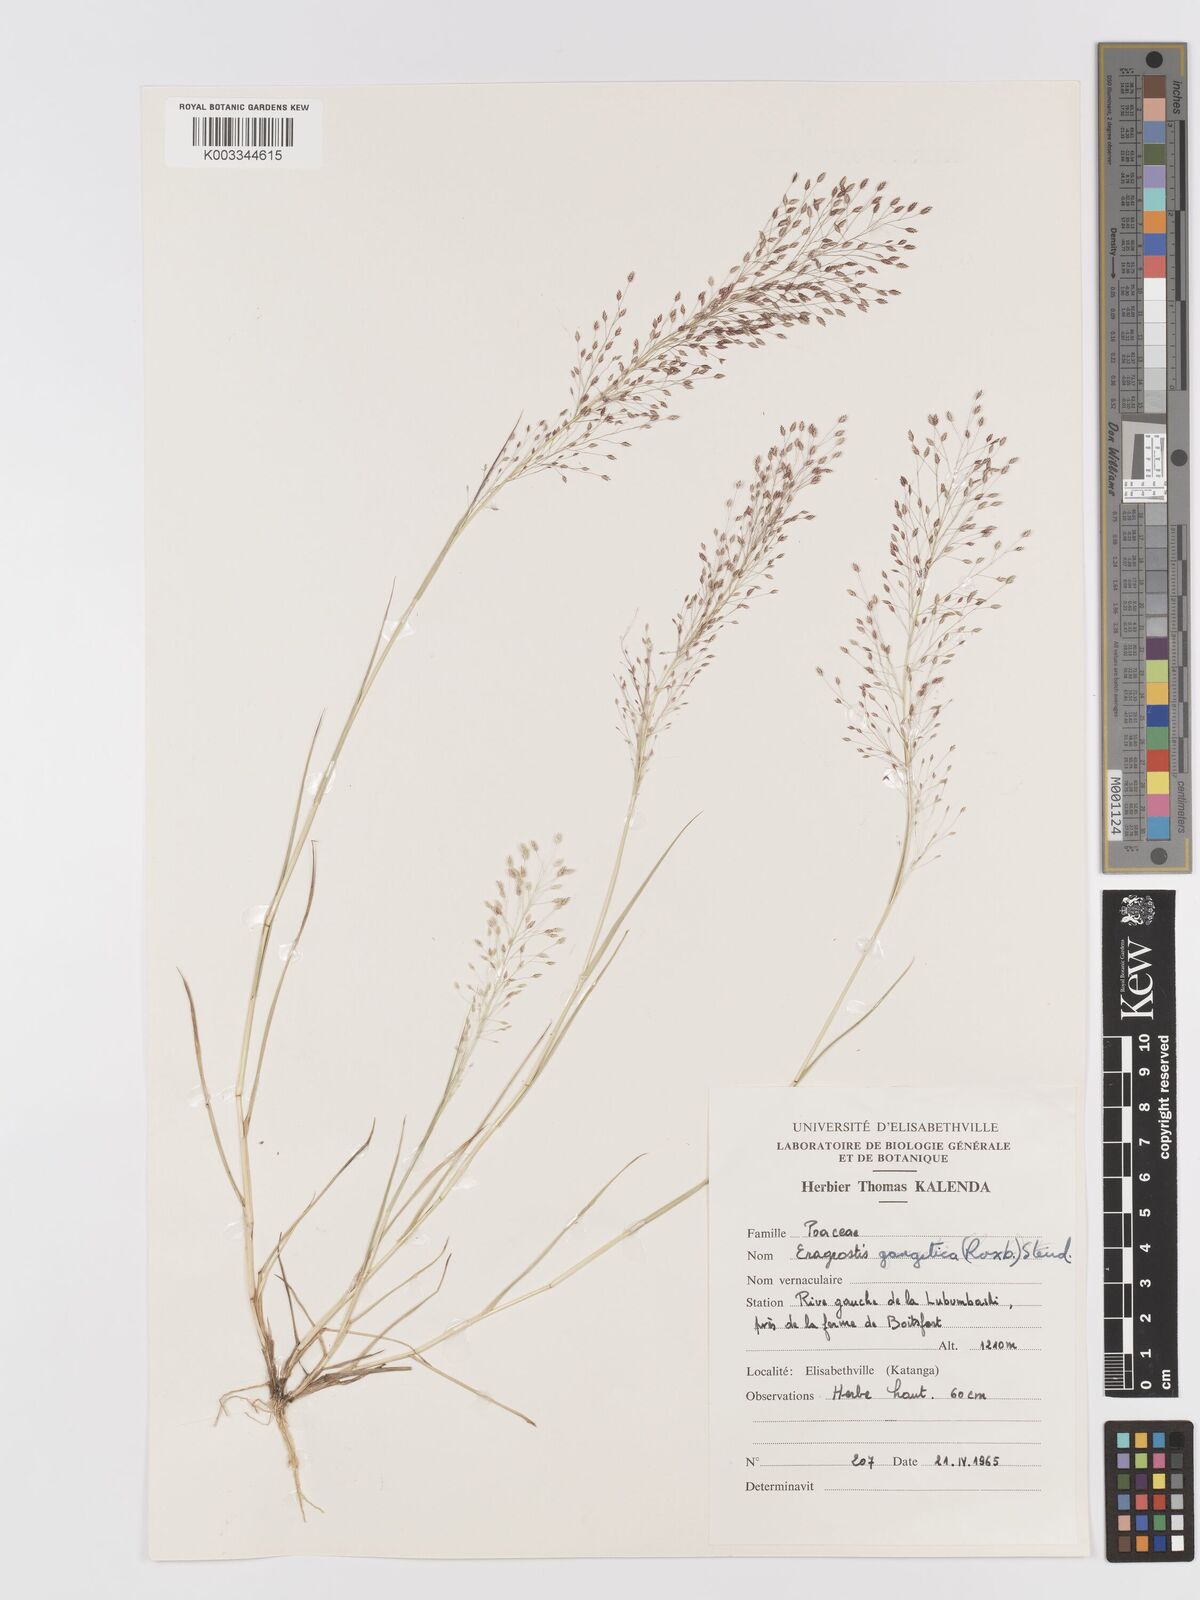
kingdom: Plantae
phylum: Tracheophyta
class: Liliopsida
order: Poales
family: Poaceae
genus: Eragrostis
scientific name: Eragrostis gangetica
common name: Slimflower lovegrass
